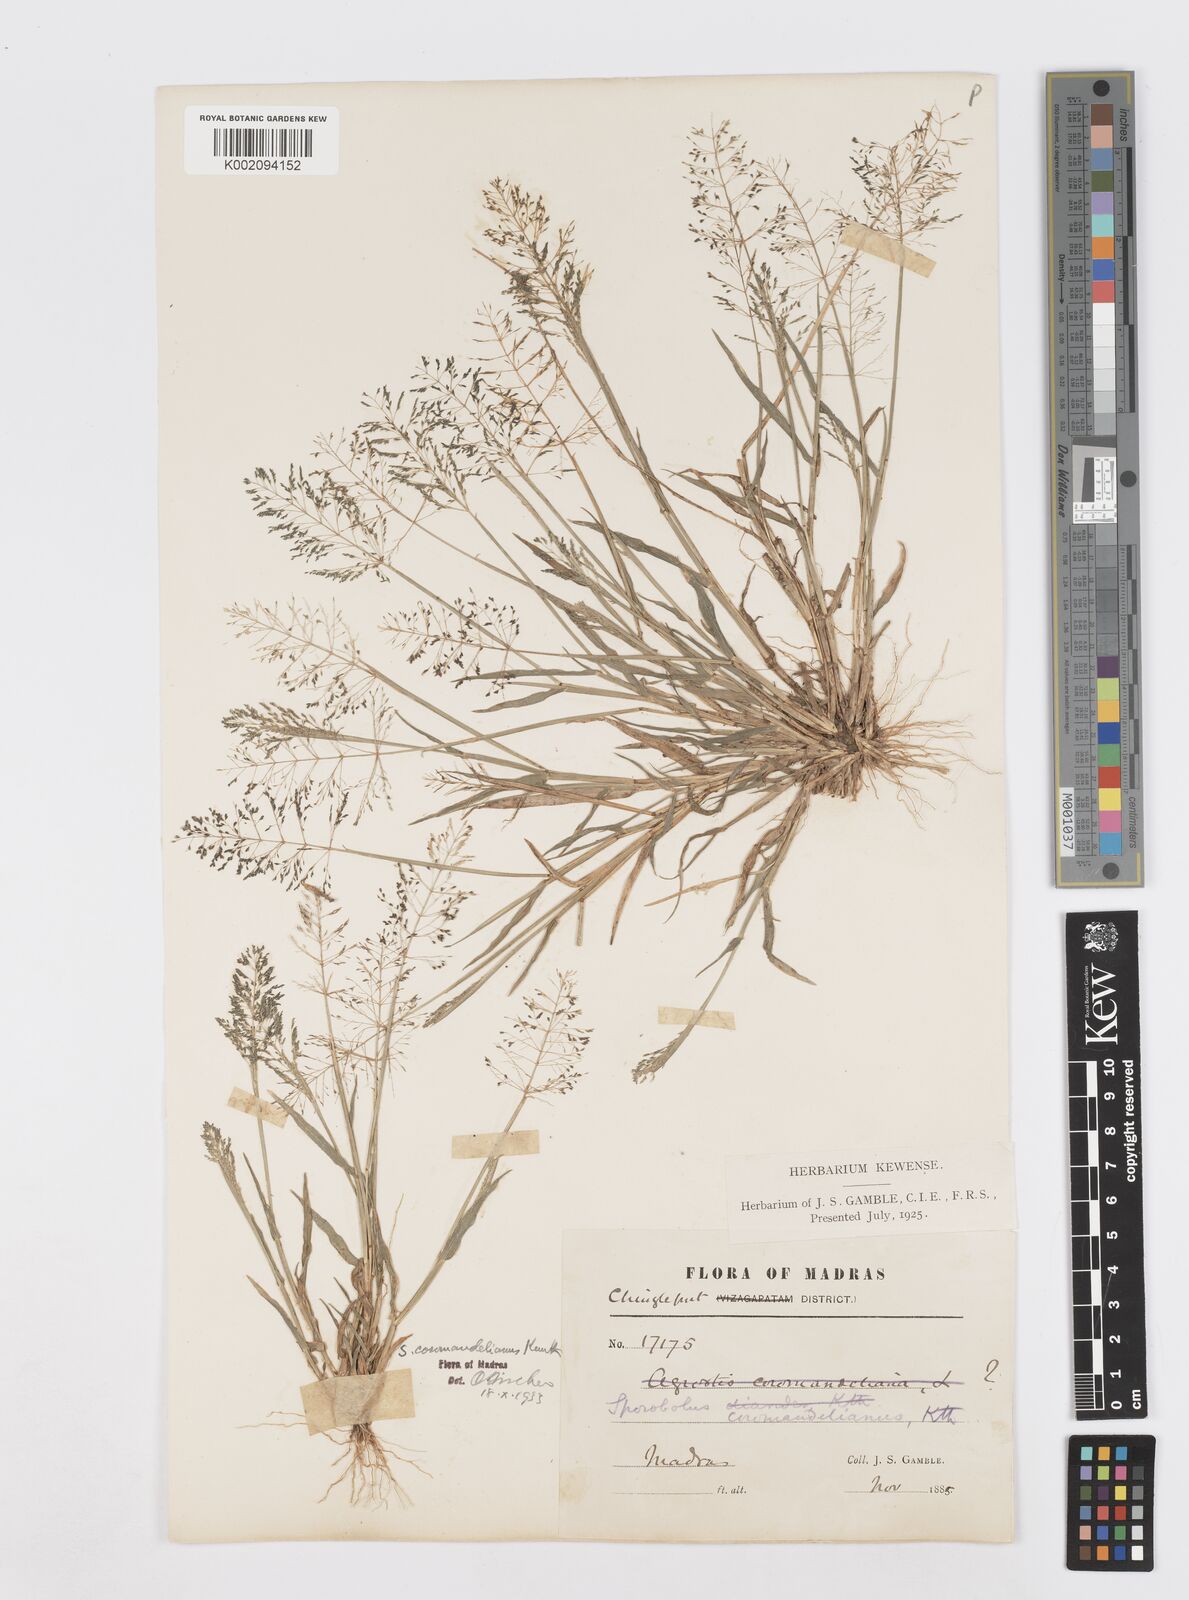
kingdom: Plantae
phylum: Tracheophyta
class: Liliopsida
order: Poales
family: Poaceae
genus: Sporobolus
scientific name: Sporobolus coromandelianus
